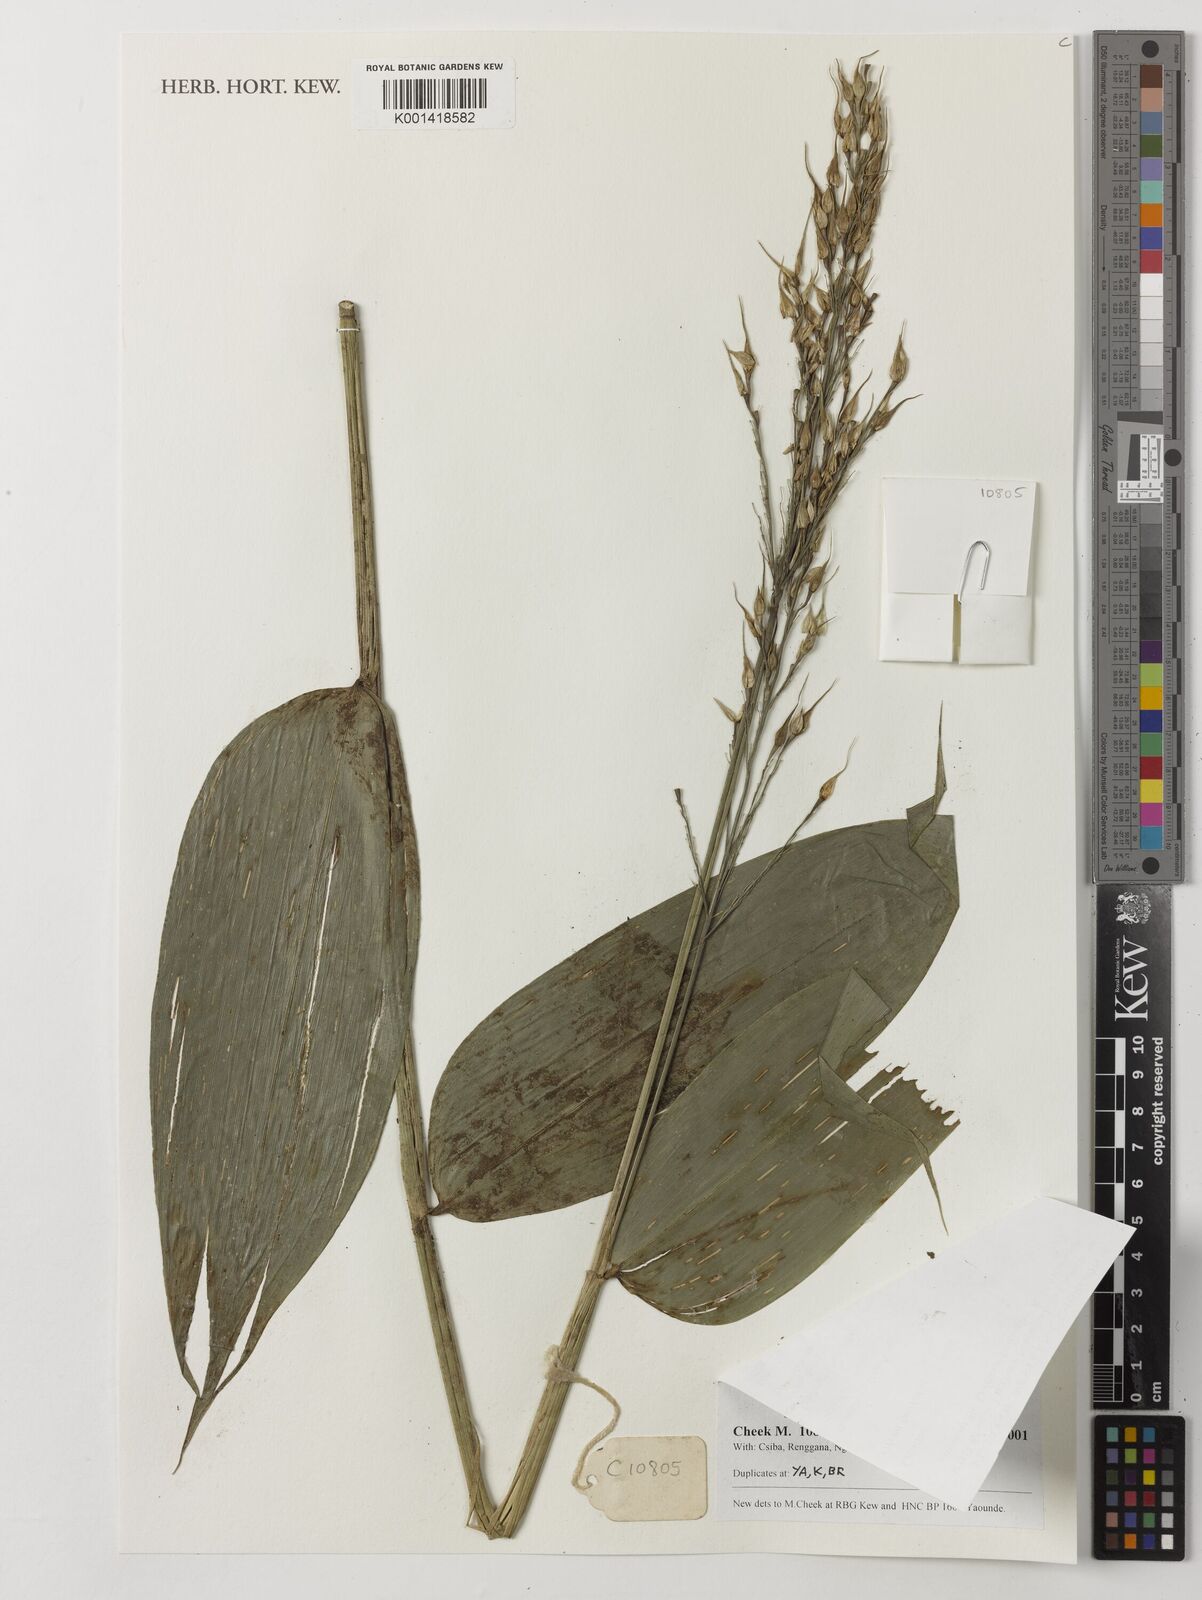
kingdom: Plantae
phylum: Tracheophyta
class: Liliopsida
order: Poales
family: Poaceae
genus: Olyra
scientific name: Olyra latifolia
